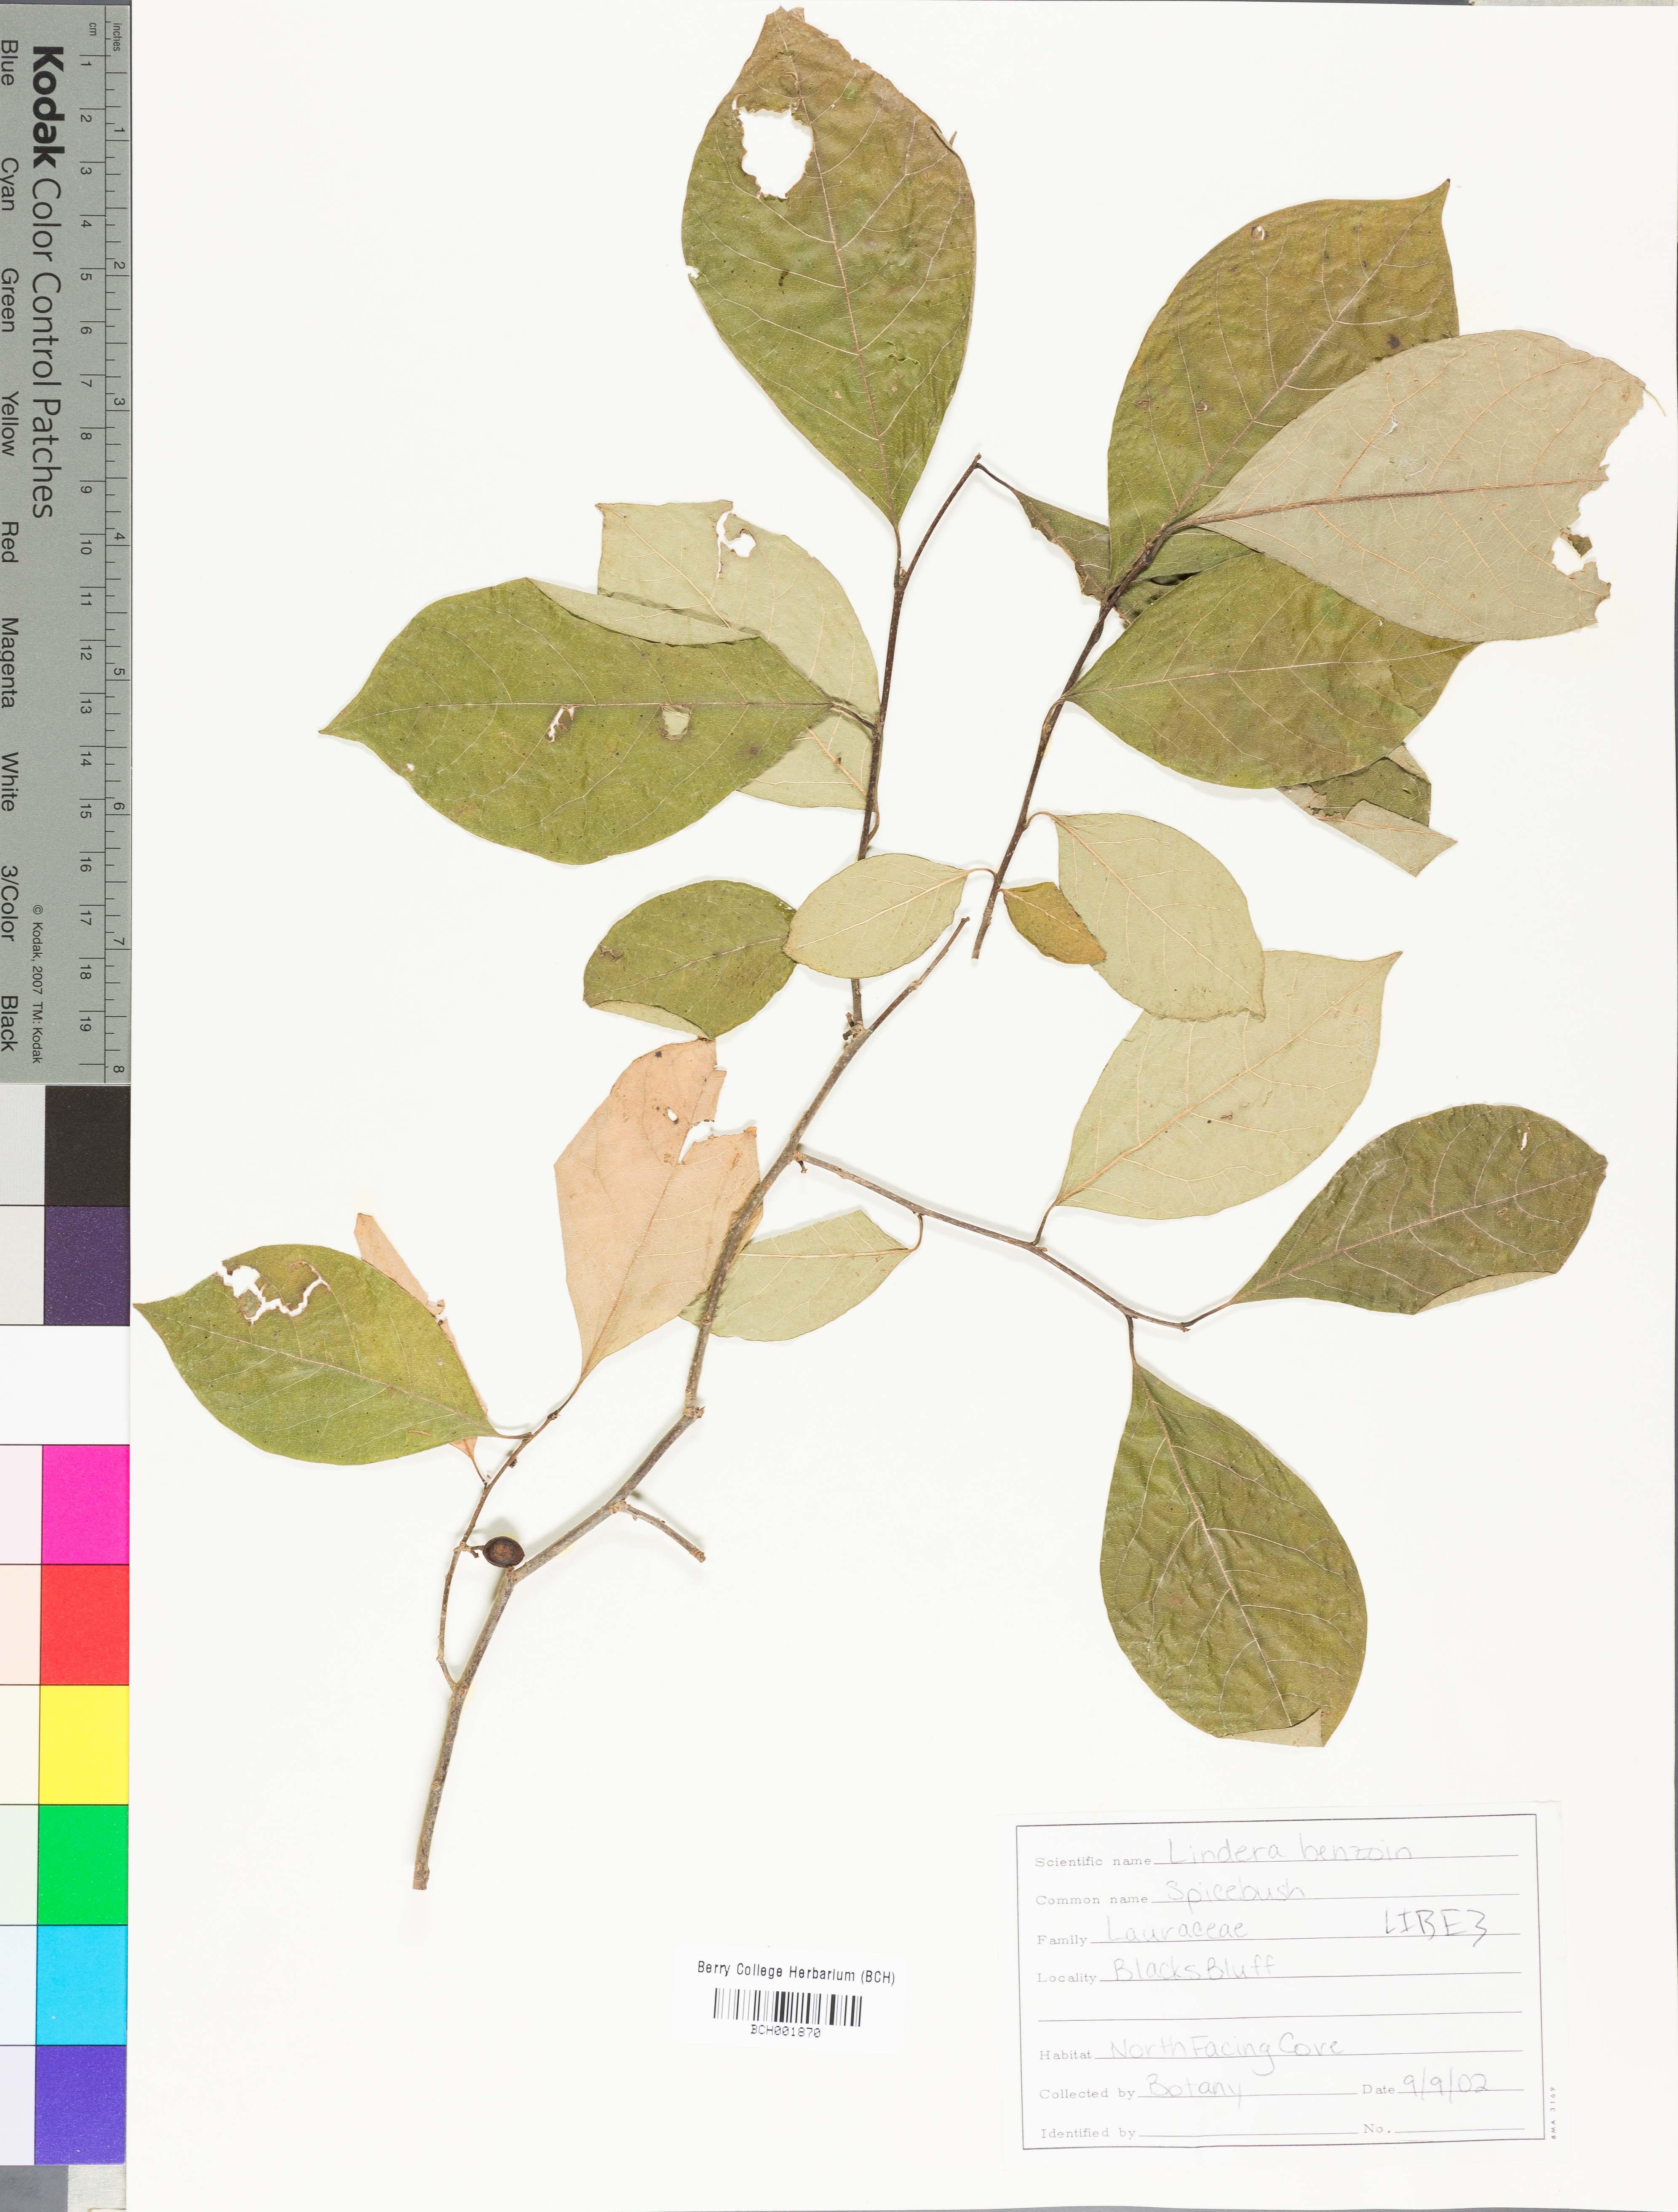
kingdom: Plantae
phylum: Tracheophyta
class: Magnoliopsida
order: Laurales
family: Lauraceae
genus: Lindera
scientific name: Lindera benzoin
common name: Spicebush
